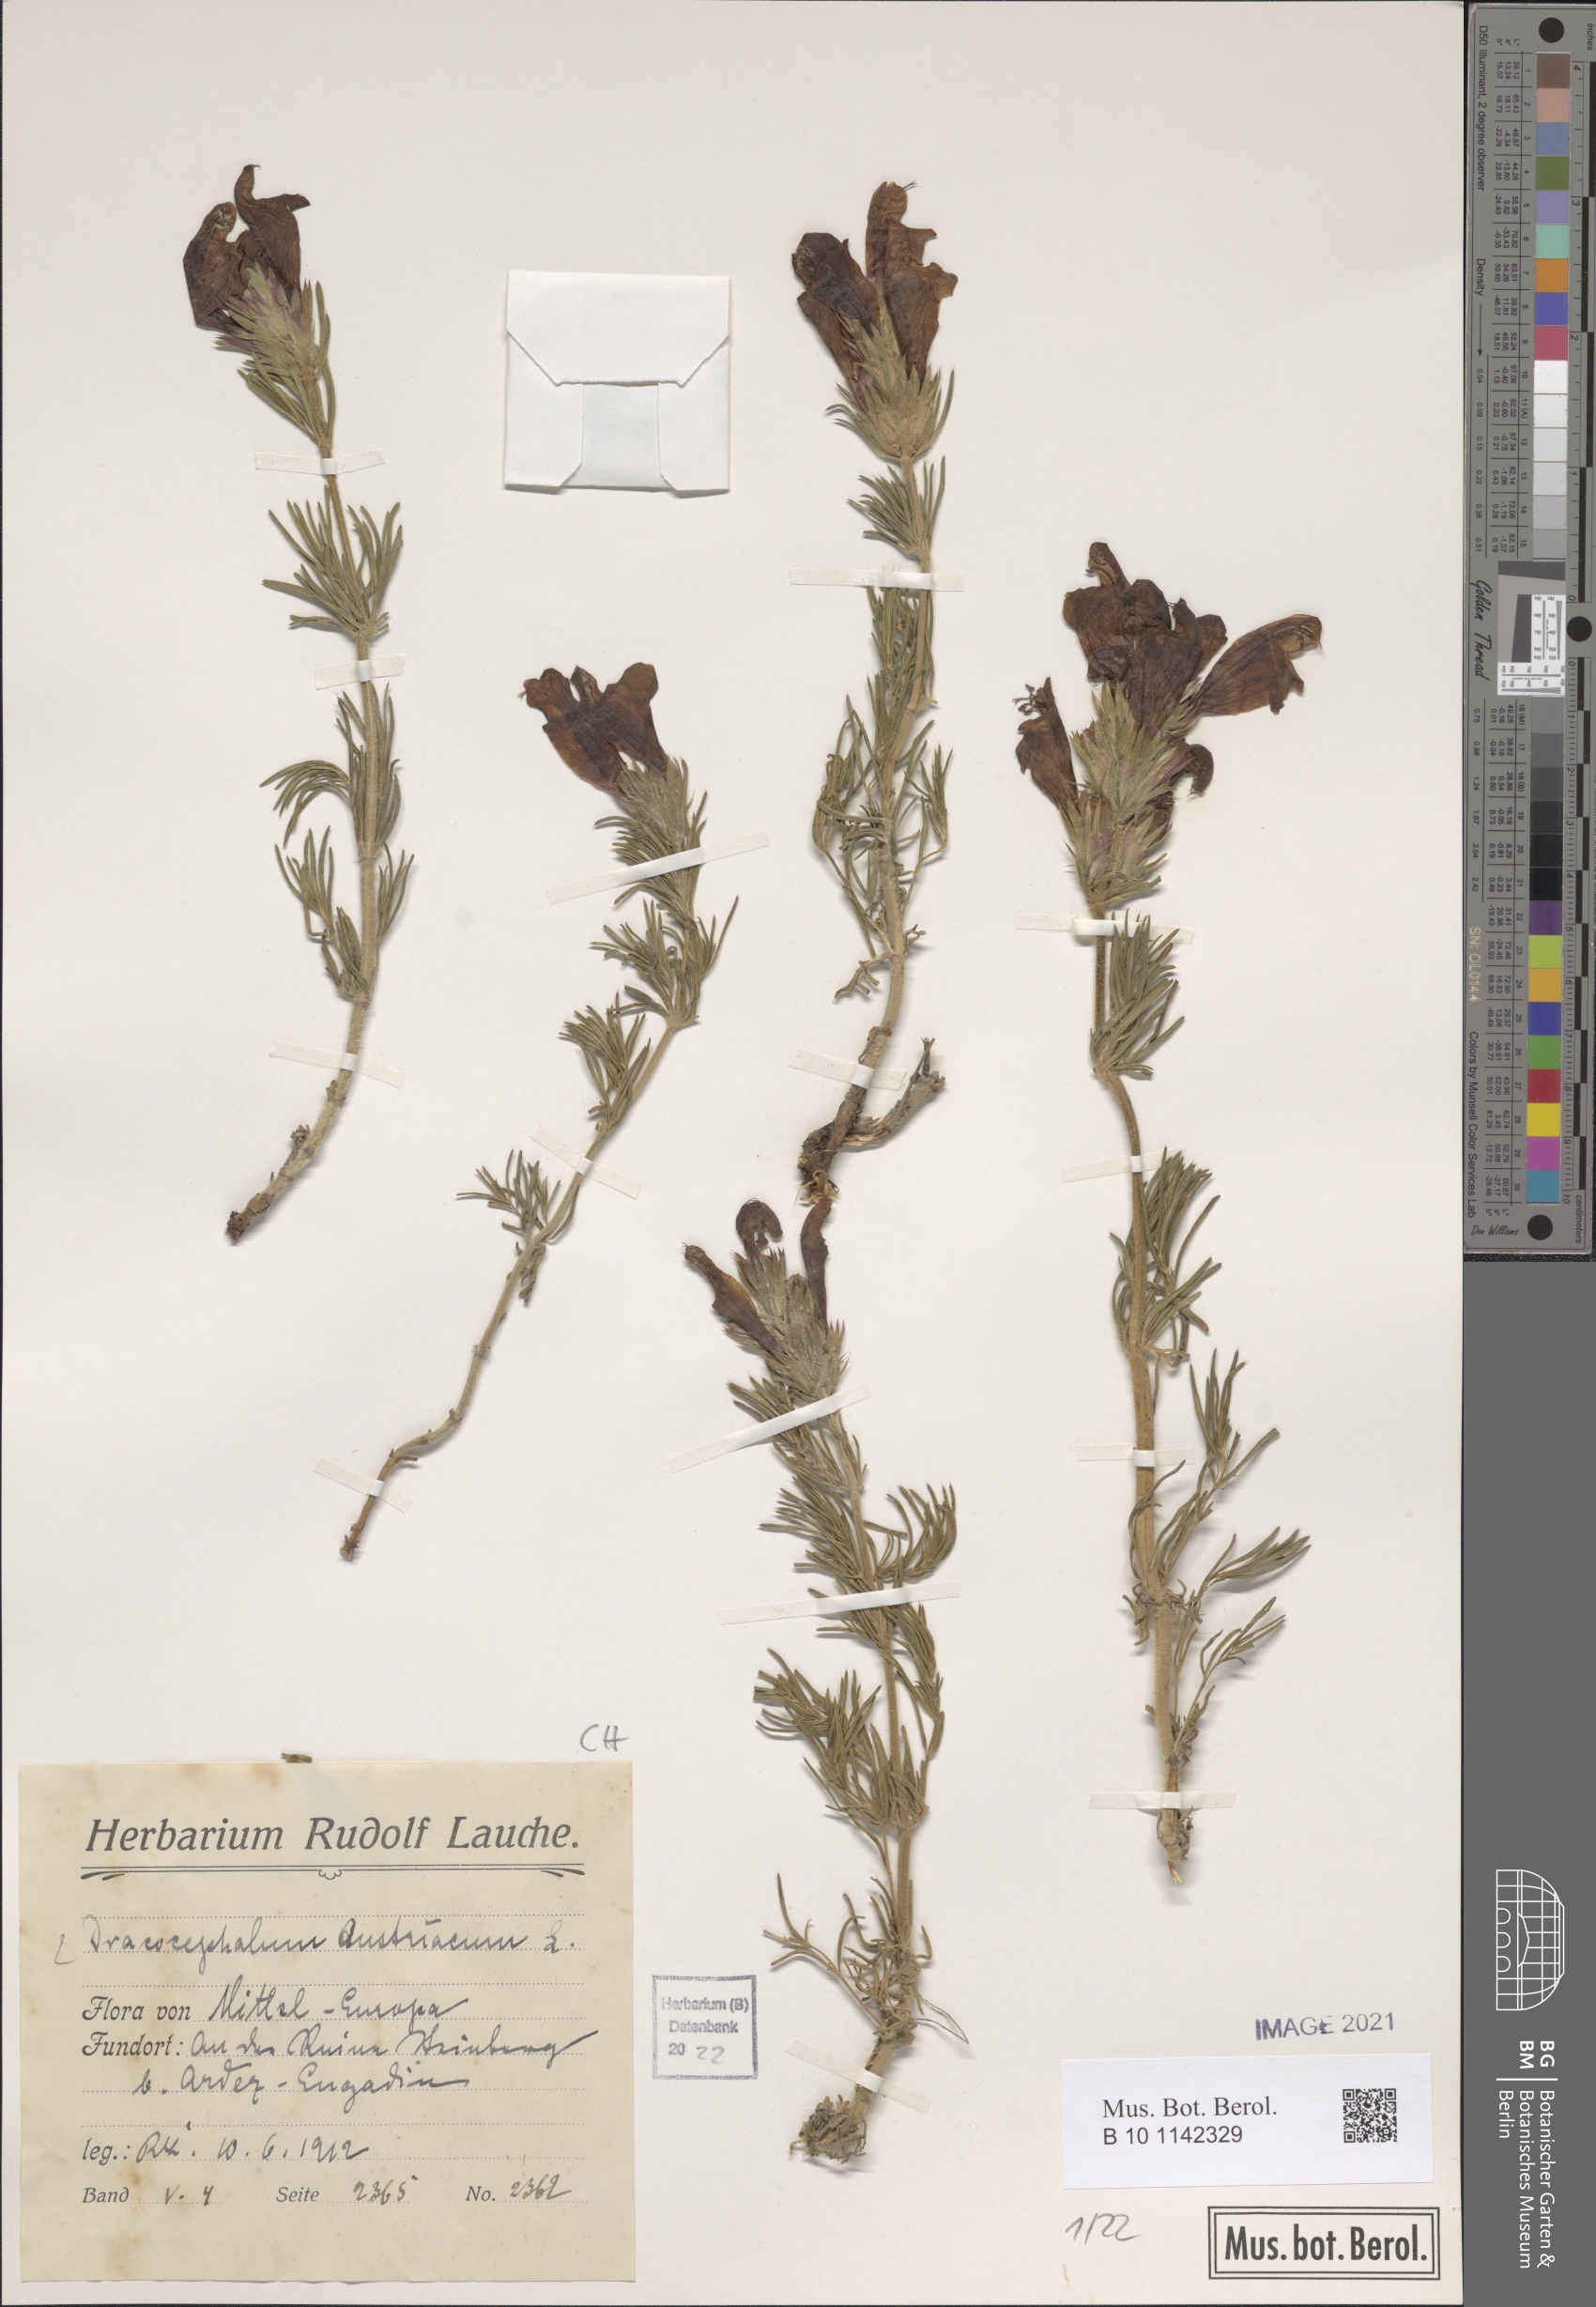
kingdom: Plantae
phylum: Tracheophyta
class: Magnoliopsida
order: Lamiales
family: Lamiaceae
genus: Dracocephalum
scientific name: Dracocephalum austriacum
